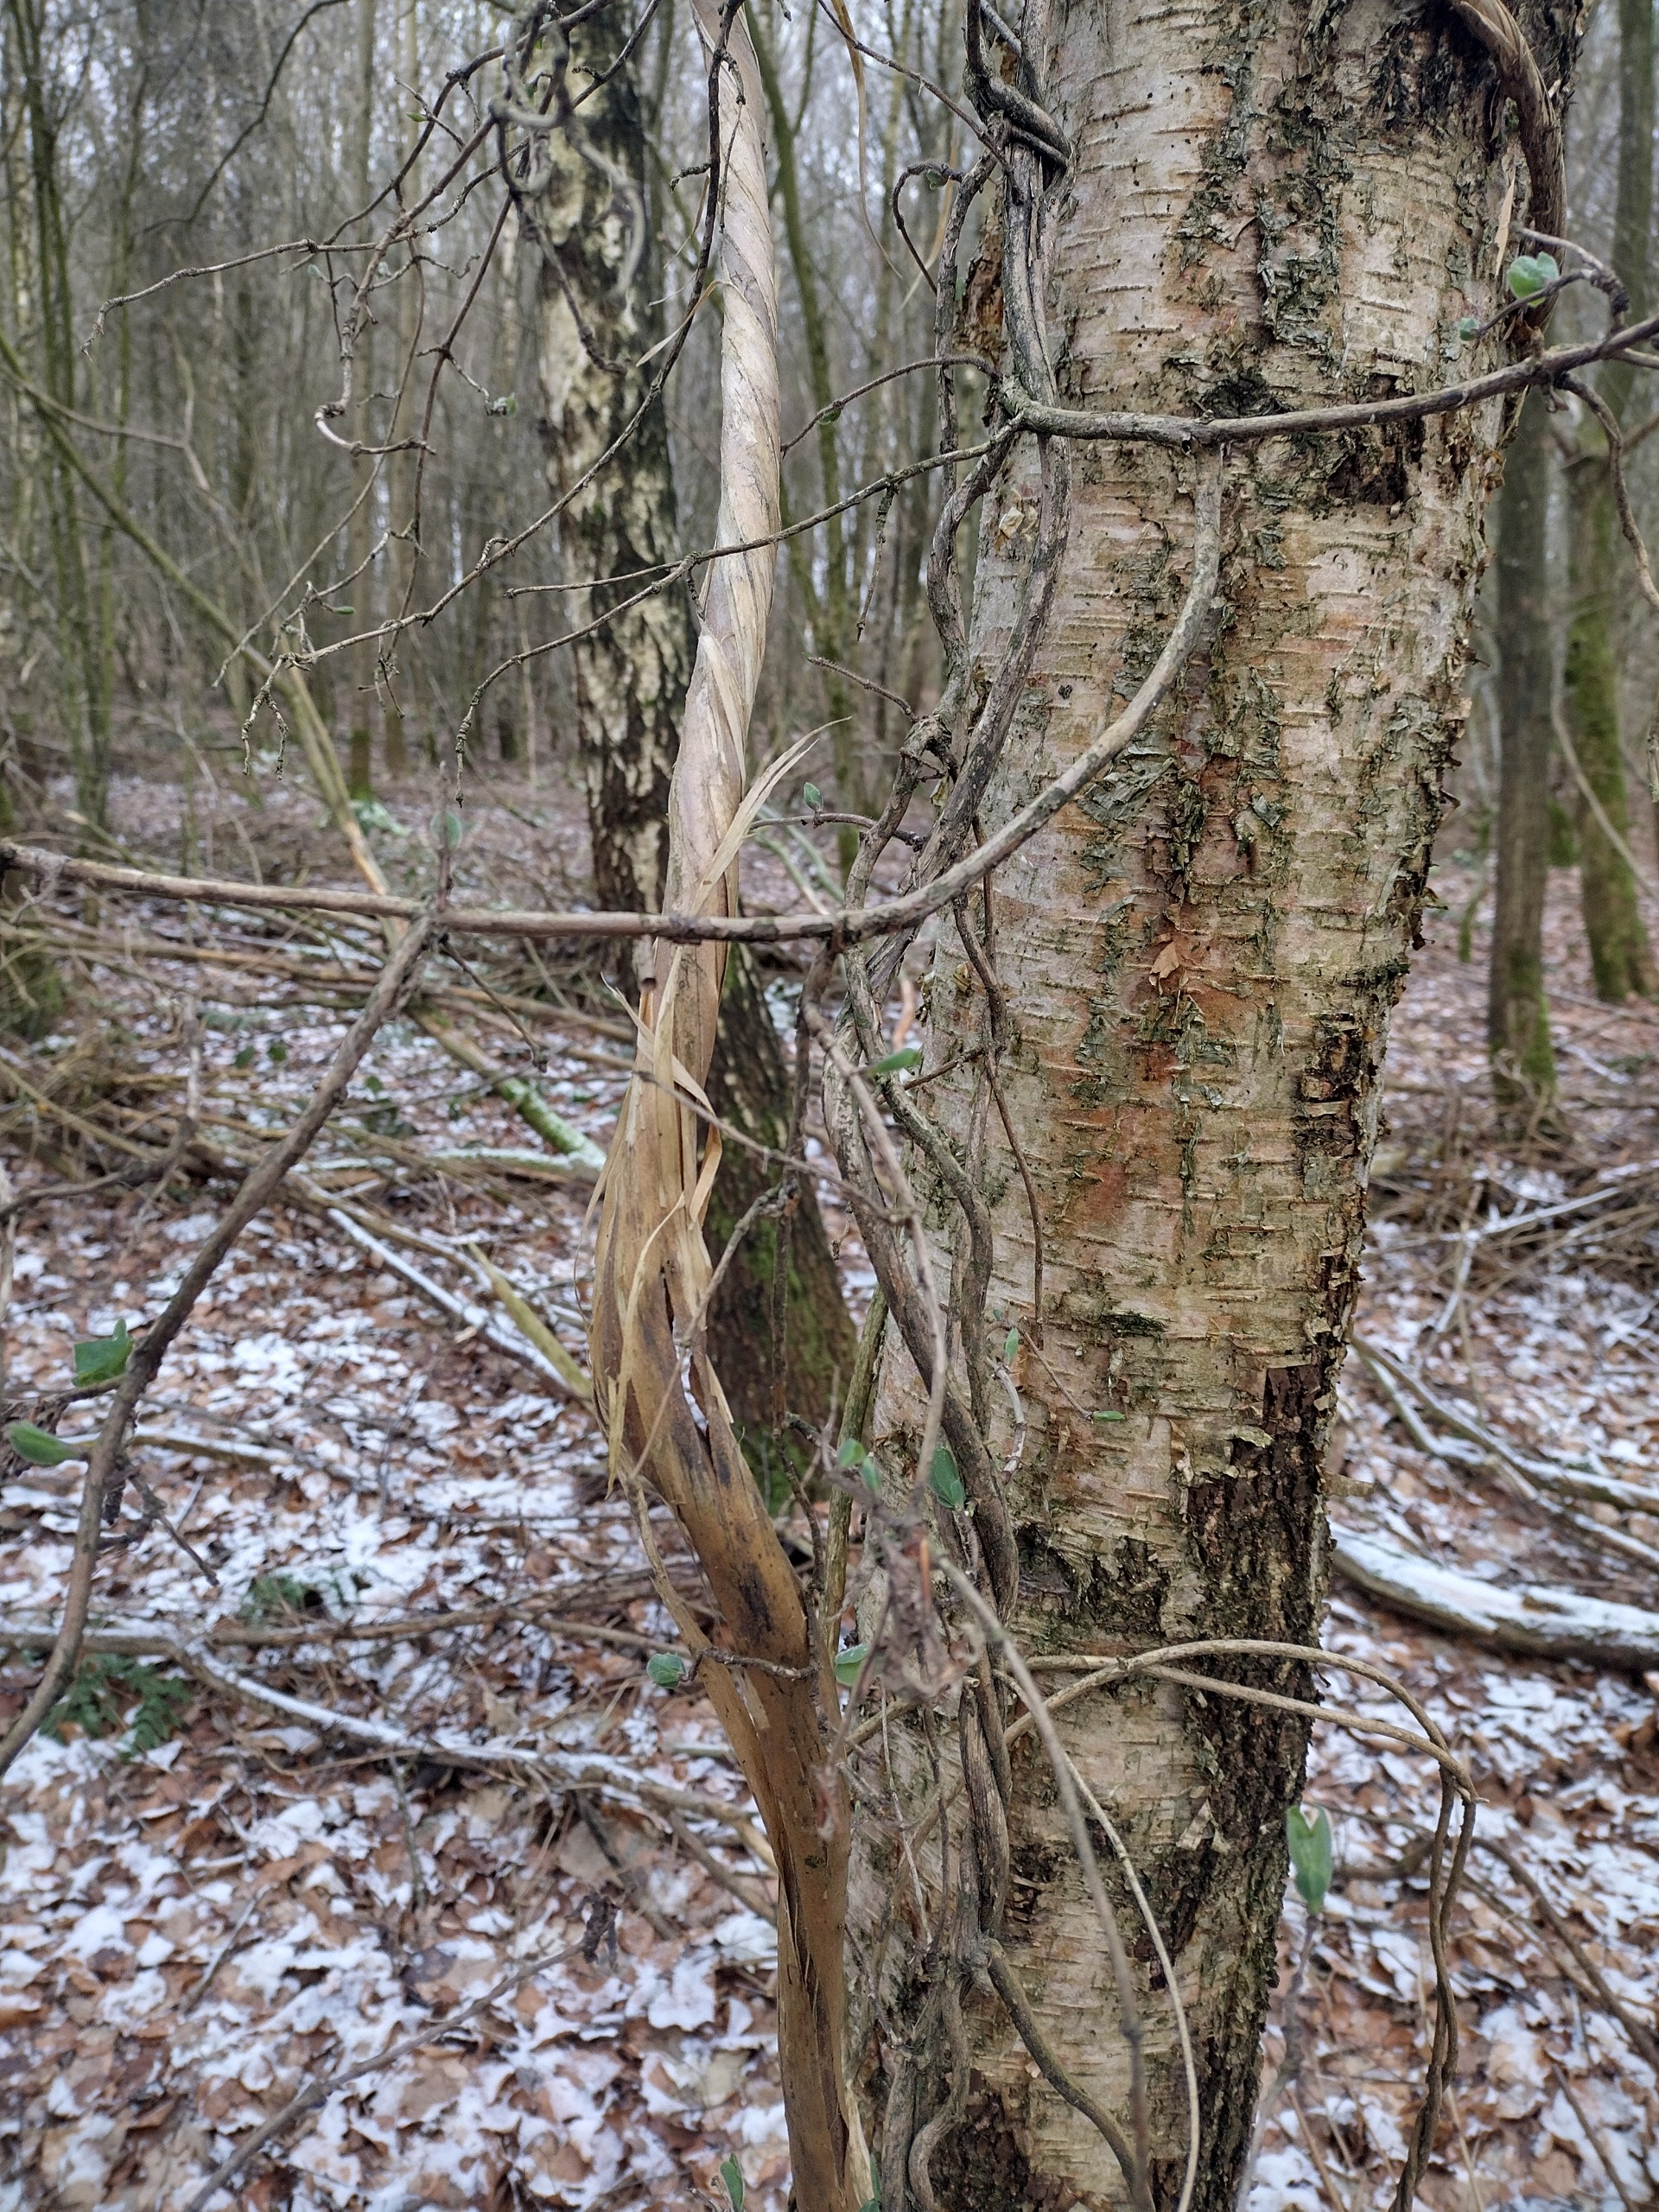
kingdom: Plantae
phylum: Tracheophyta
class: Magnoliopsida
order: Dipsacales
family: Caprifoliaceae
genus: Lonicera
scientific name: Lonicera periclymenum
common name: Almindelig gedeblad
